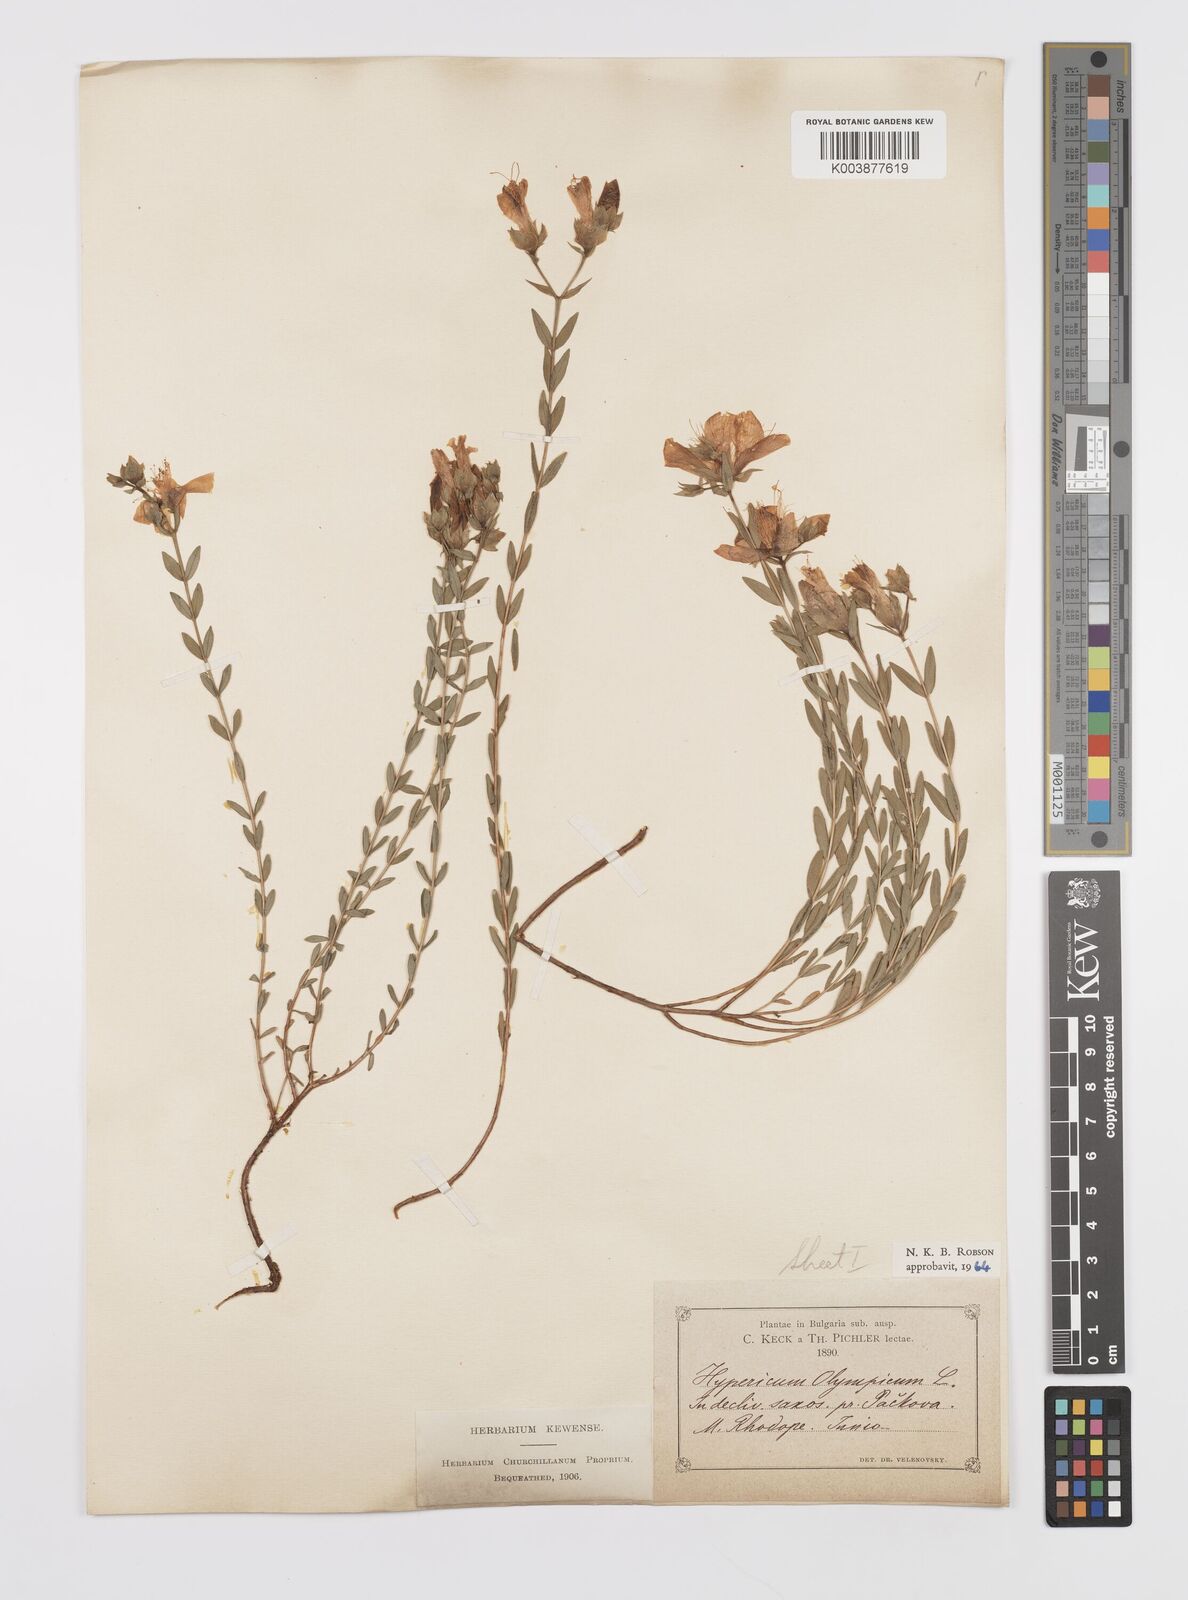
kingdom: Plantae
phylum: Tracheophyta
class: Magnoliopsida
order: Malpighiales
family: Hypericaceae
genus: Hypericum
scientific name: Hypericum olympicum
